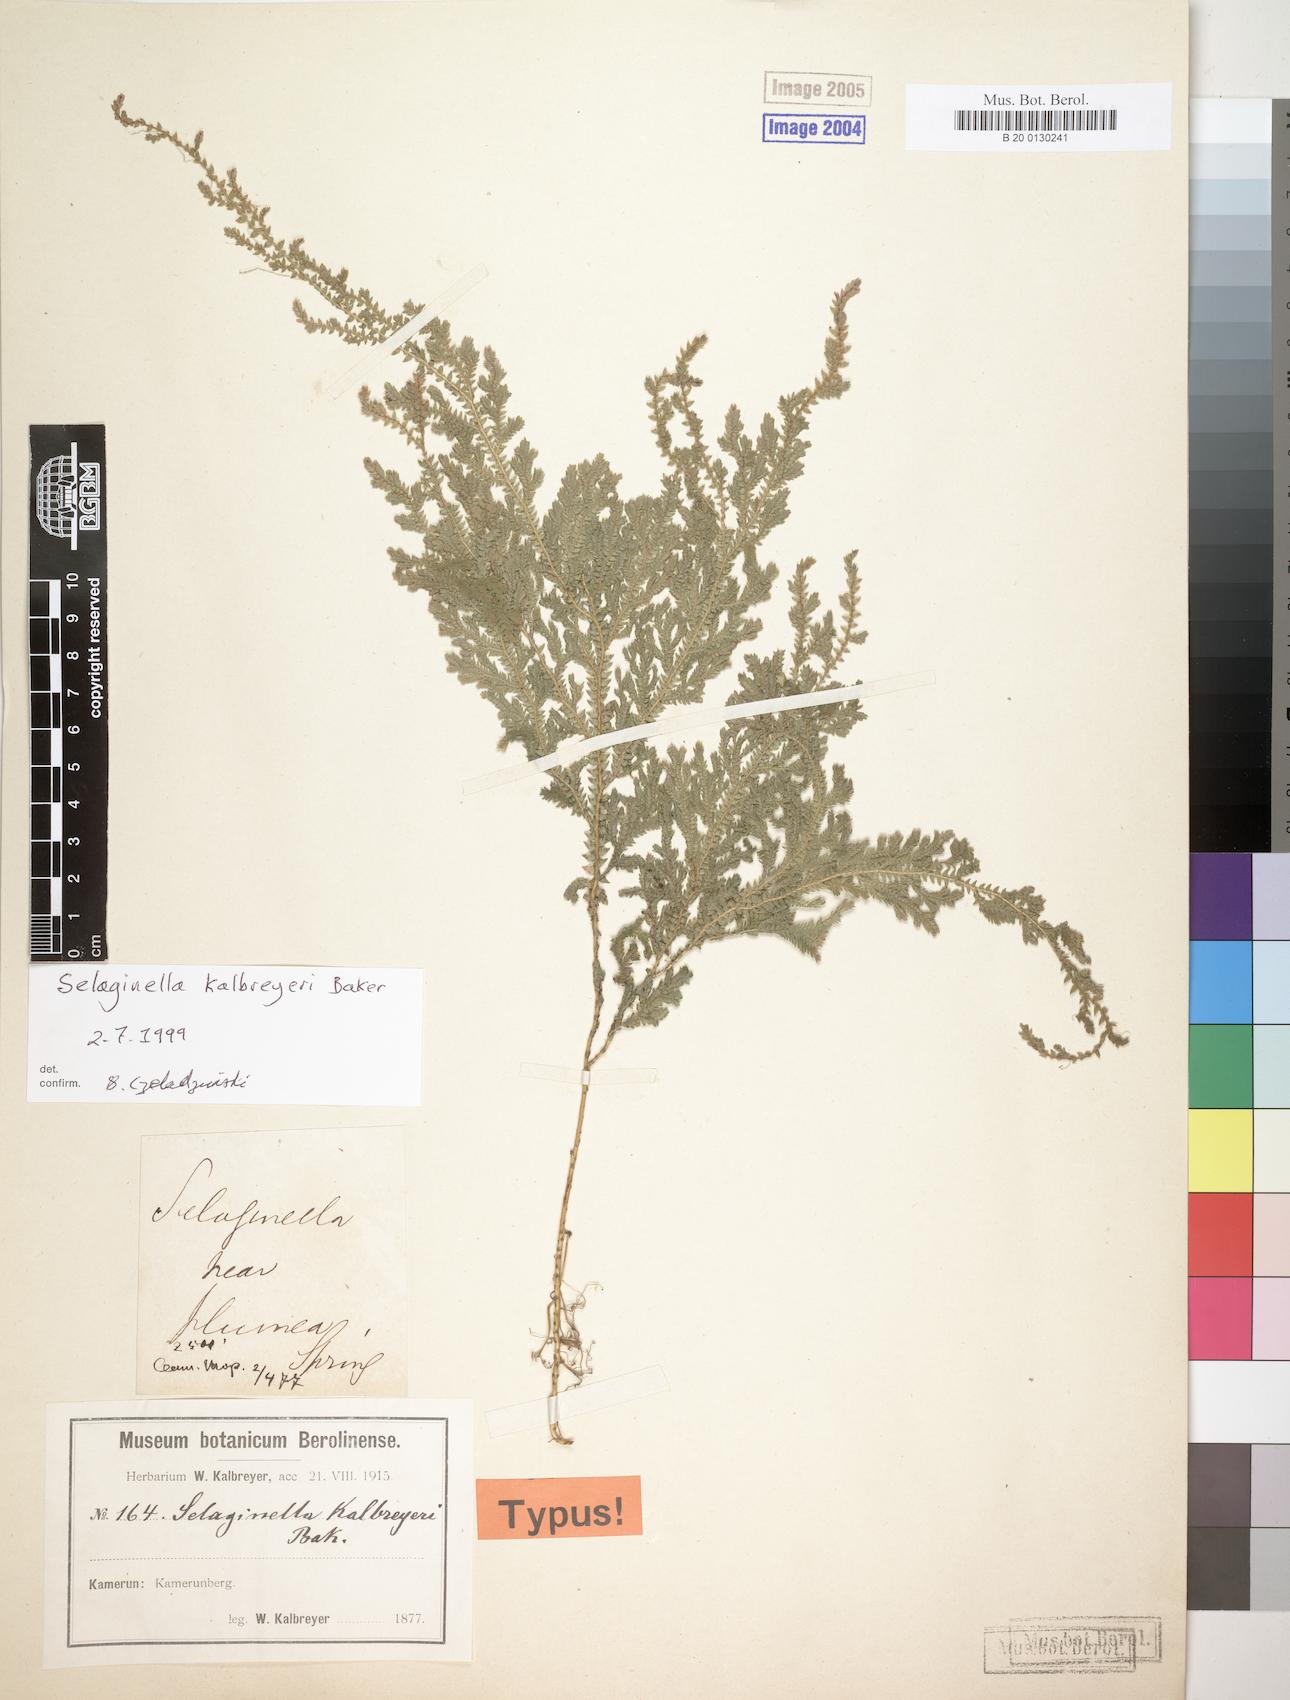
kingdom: Plantae
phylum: Tracheophyta
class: Lycopodiopsida
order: Selaginellales
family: Selaginellaceae
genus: Selaginella
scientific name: Selaginella kalbreyeri
